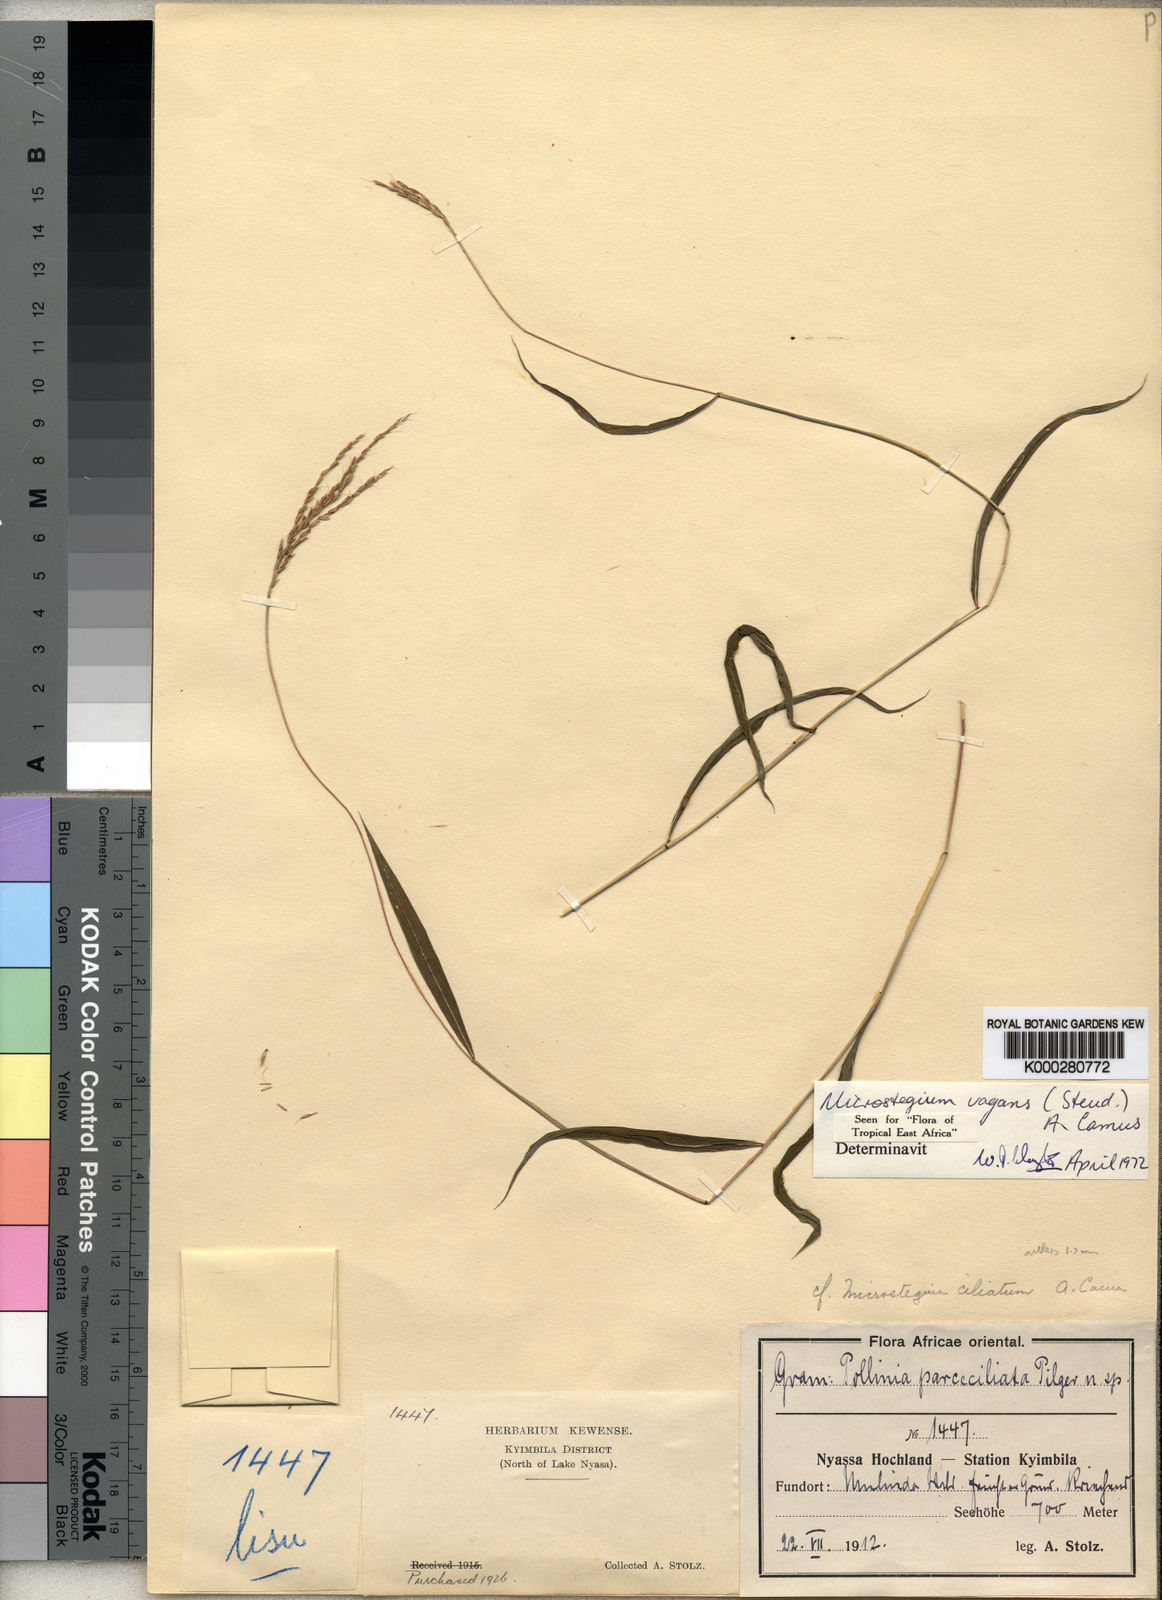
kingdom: Plantae
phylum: Tracheophyta
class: Liliopsida
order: Poales
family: Poaceae
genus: Microstegium
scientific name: Microstegium fasciculatum
